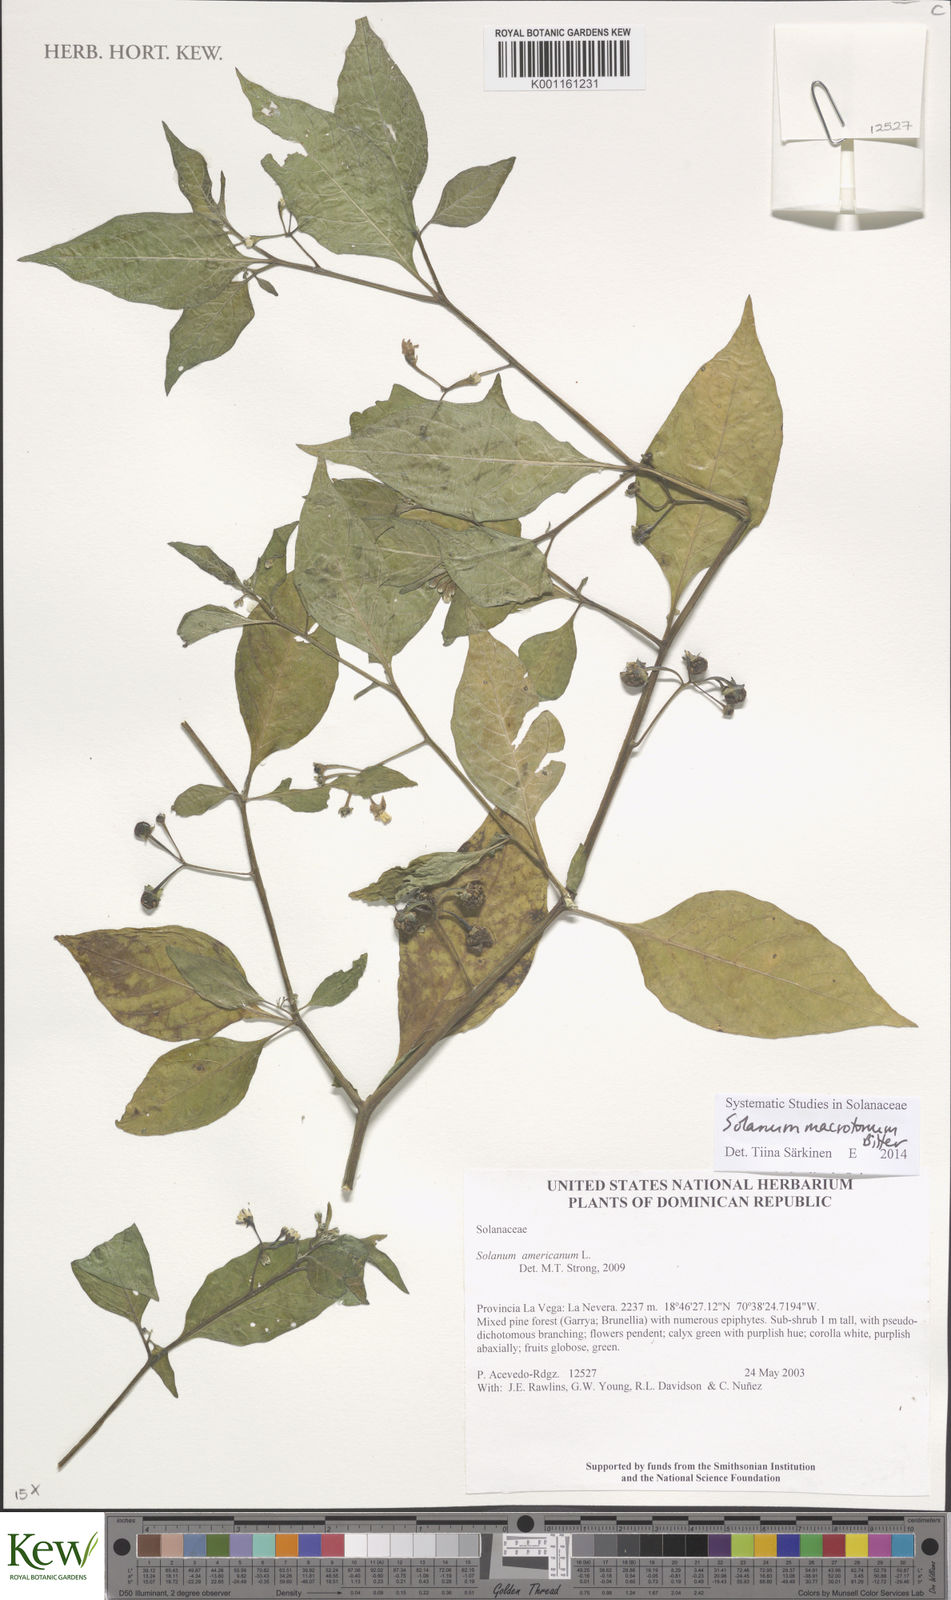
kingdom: Plantae
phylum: Tracheophyta
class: Magnoliopsida
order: Solanales
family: Solanaceae
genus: Solanum
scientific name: Solanum macrotonum
